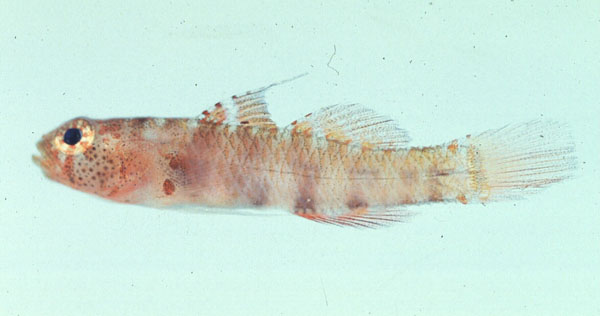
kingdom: Animalia
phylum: Chordata
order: Perciformes
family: Gobiidae
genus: Eviota
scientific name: Eviota queenslandica
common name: Queensland pygmy goby
